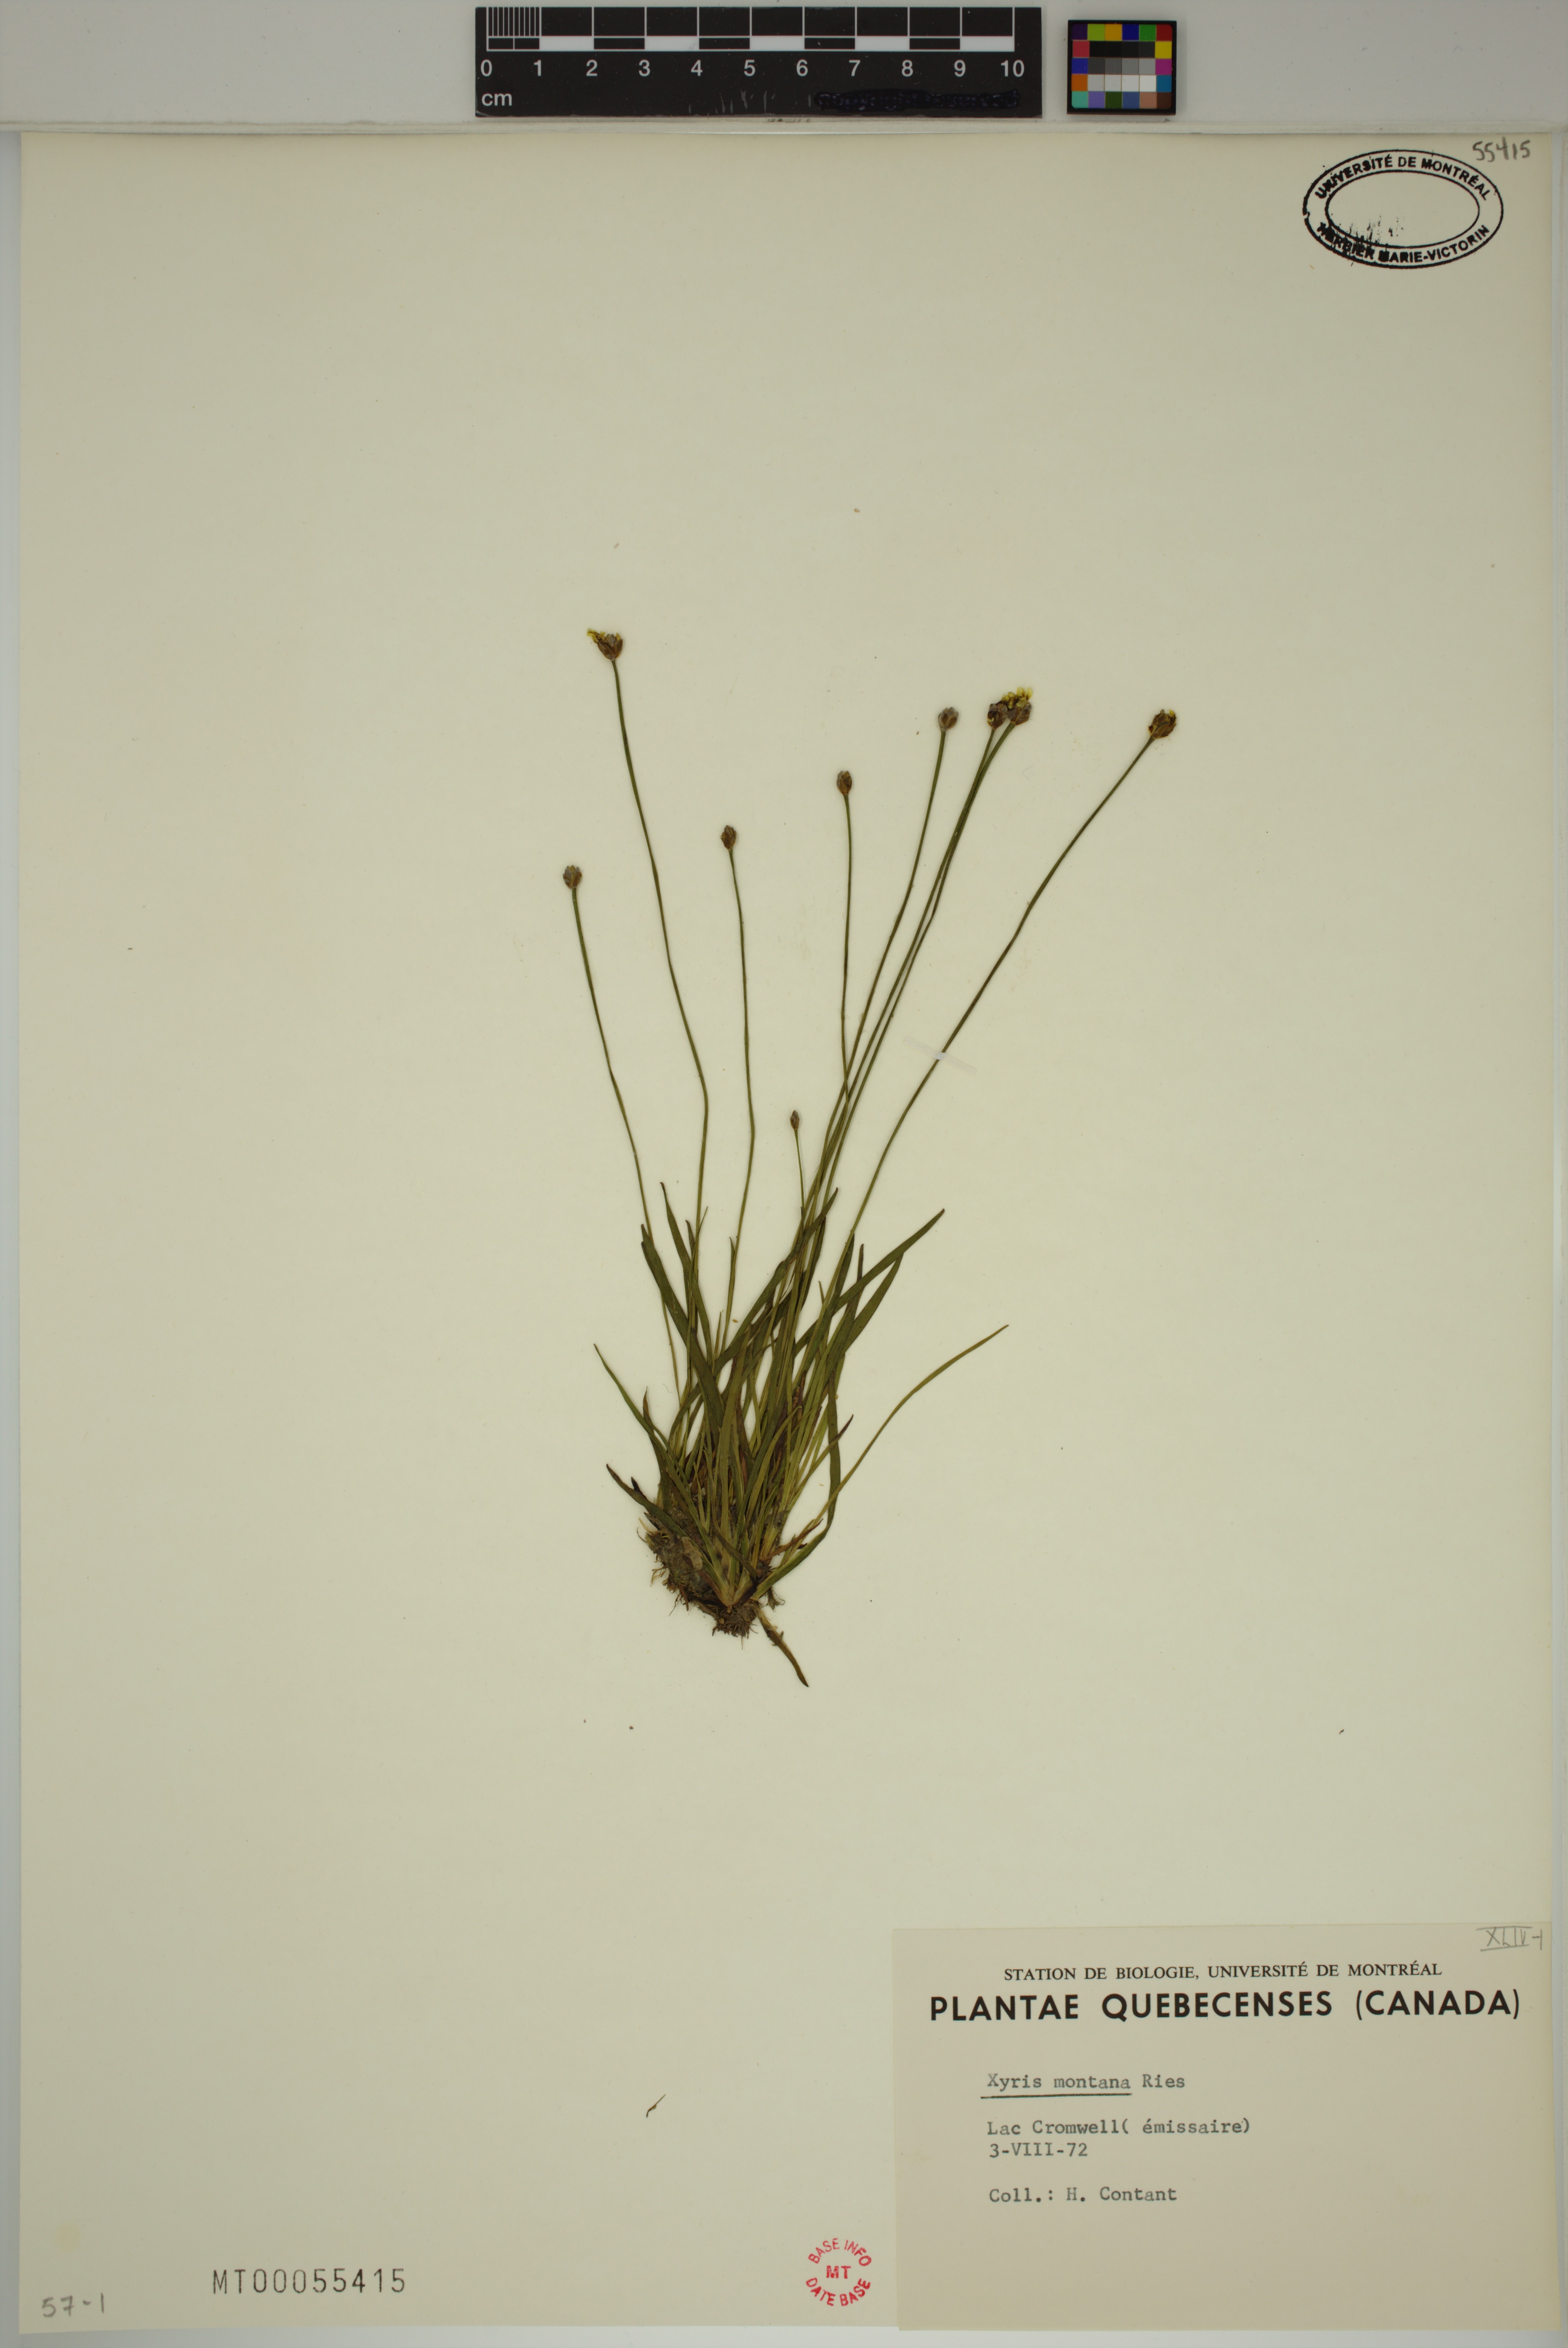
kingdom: Plantae
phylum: Tracheophyta
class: Liliopsida
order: Poales
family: Xyridaceae
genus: Xyris
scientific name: Xyris montana
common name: Northern yellow-eyed-grass
